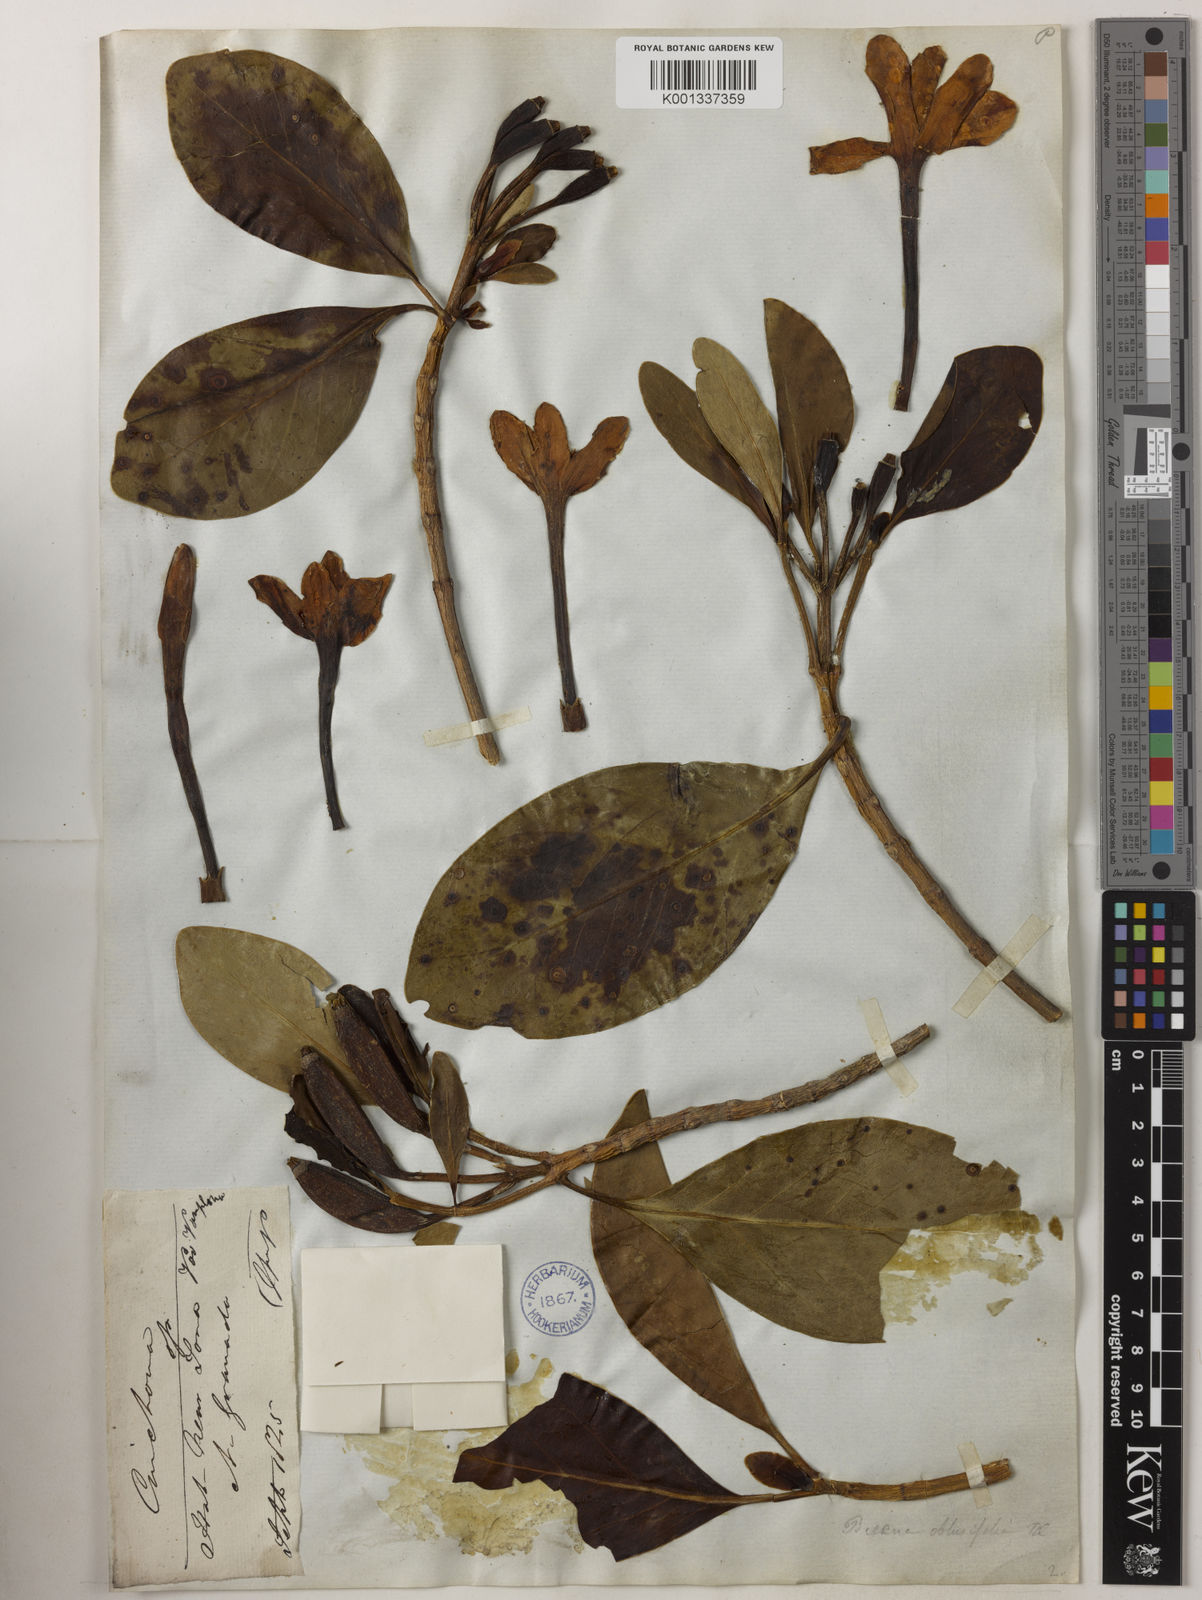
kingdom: Plantae
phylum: Tracheophyta
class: Magnoliopsida
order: Gentianales
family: Rubiaceae
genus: Cinchona
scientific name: Cinchona
